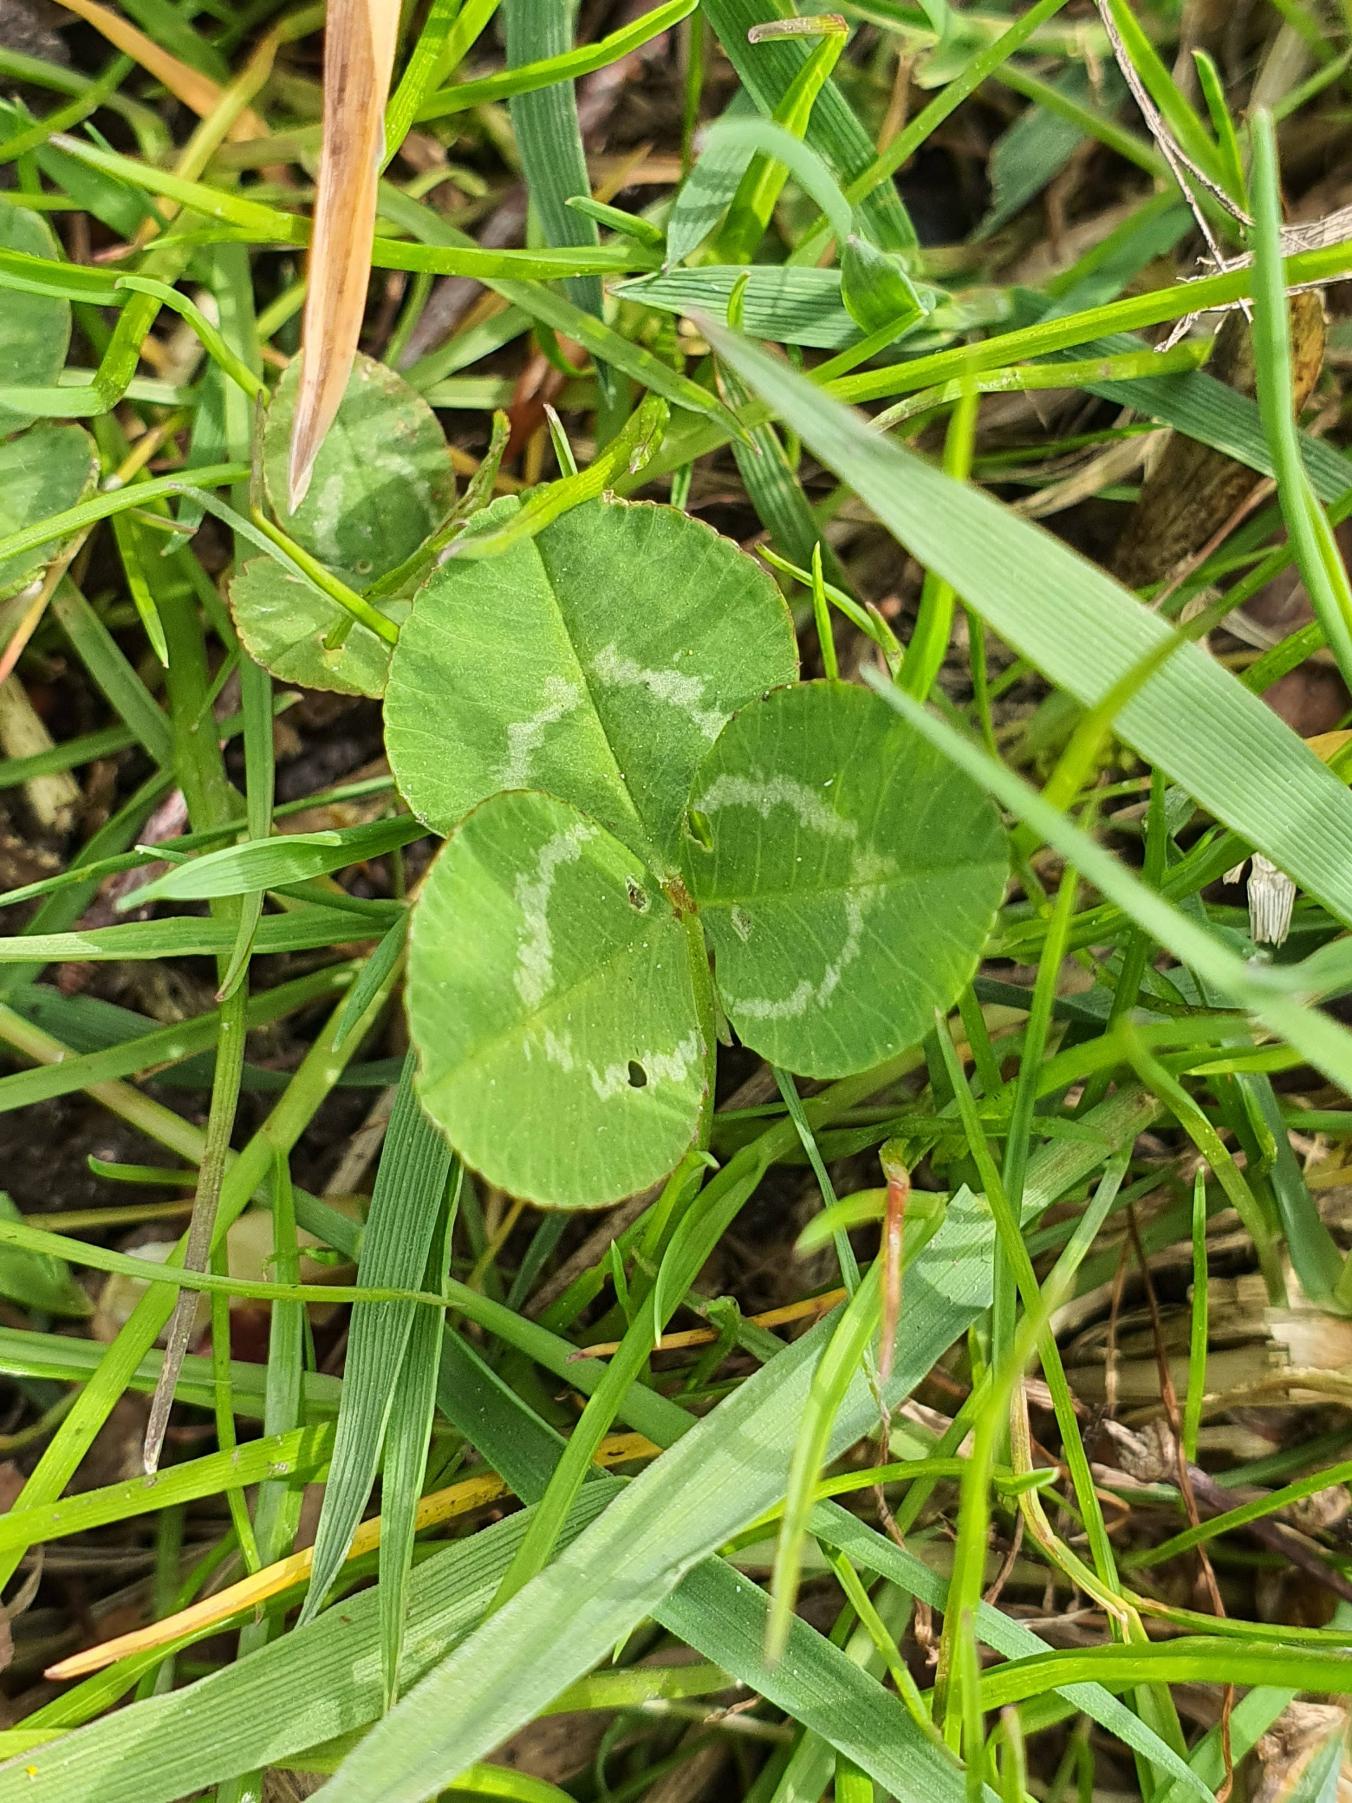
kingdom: Plantae
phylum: Tracheophyta
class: Magnoliopsida
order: Fabales
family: Fabaceae
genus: Trifolium
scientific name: Trifolium repens
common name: Hvid-kløver
